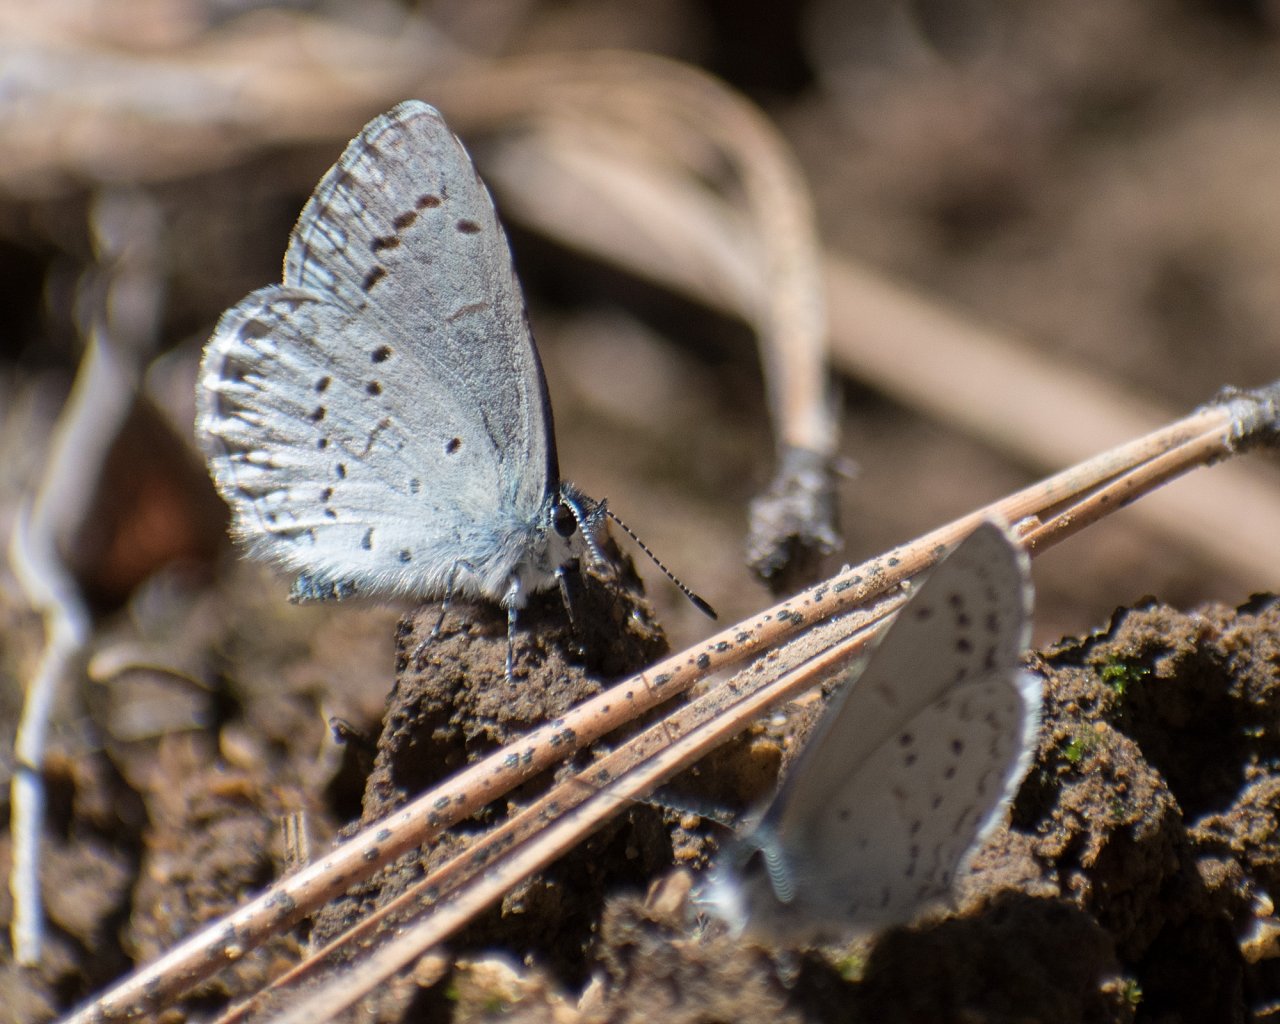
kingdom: Animalia
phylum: Arthropoda
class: Insecta
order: Lepidoptera
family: Lycaenidae
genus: Celastrina
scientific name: Celastrina ladon
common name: Echo Azure
